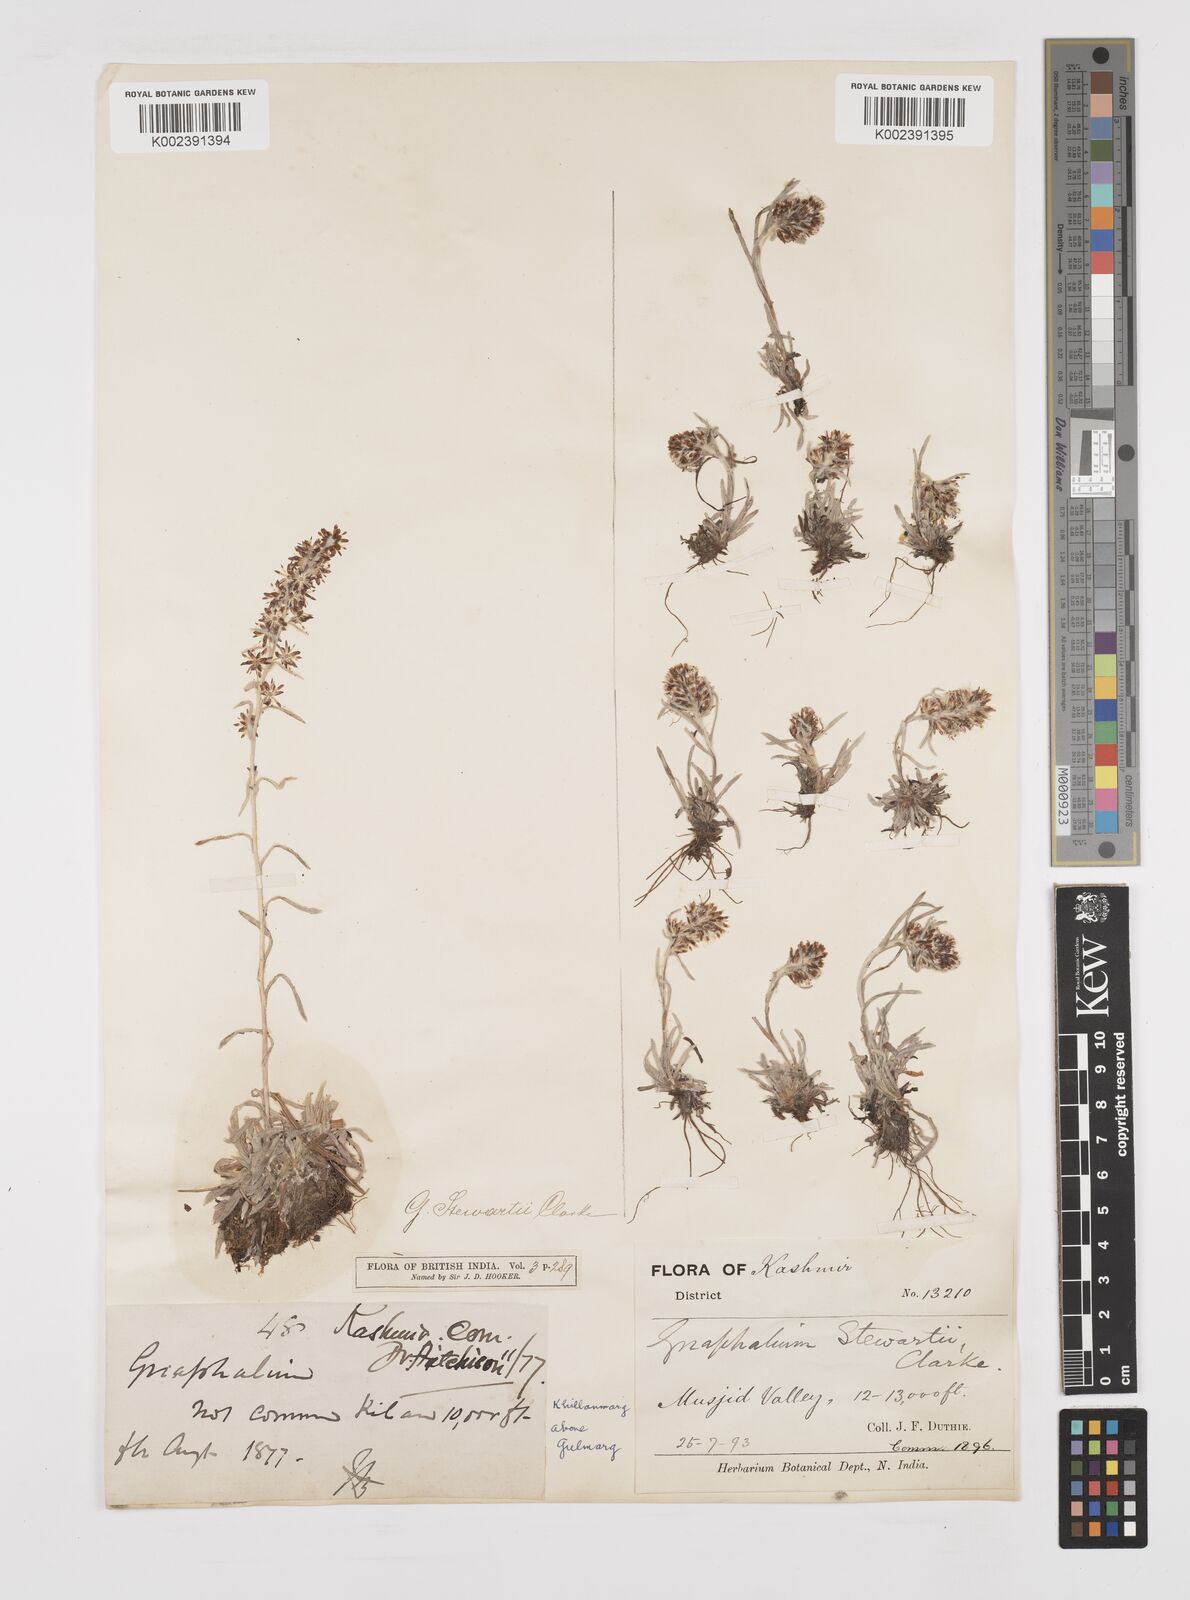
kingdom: Plantae
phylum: Tracheophyta
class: Magnoliopsida
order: Asterales
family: Asteraceae
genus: Gnaphalium
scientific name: Gnaphalium stewartii
